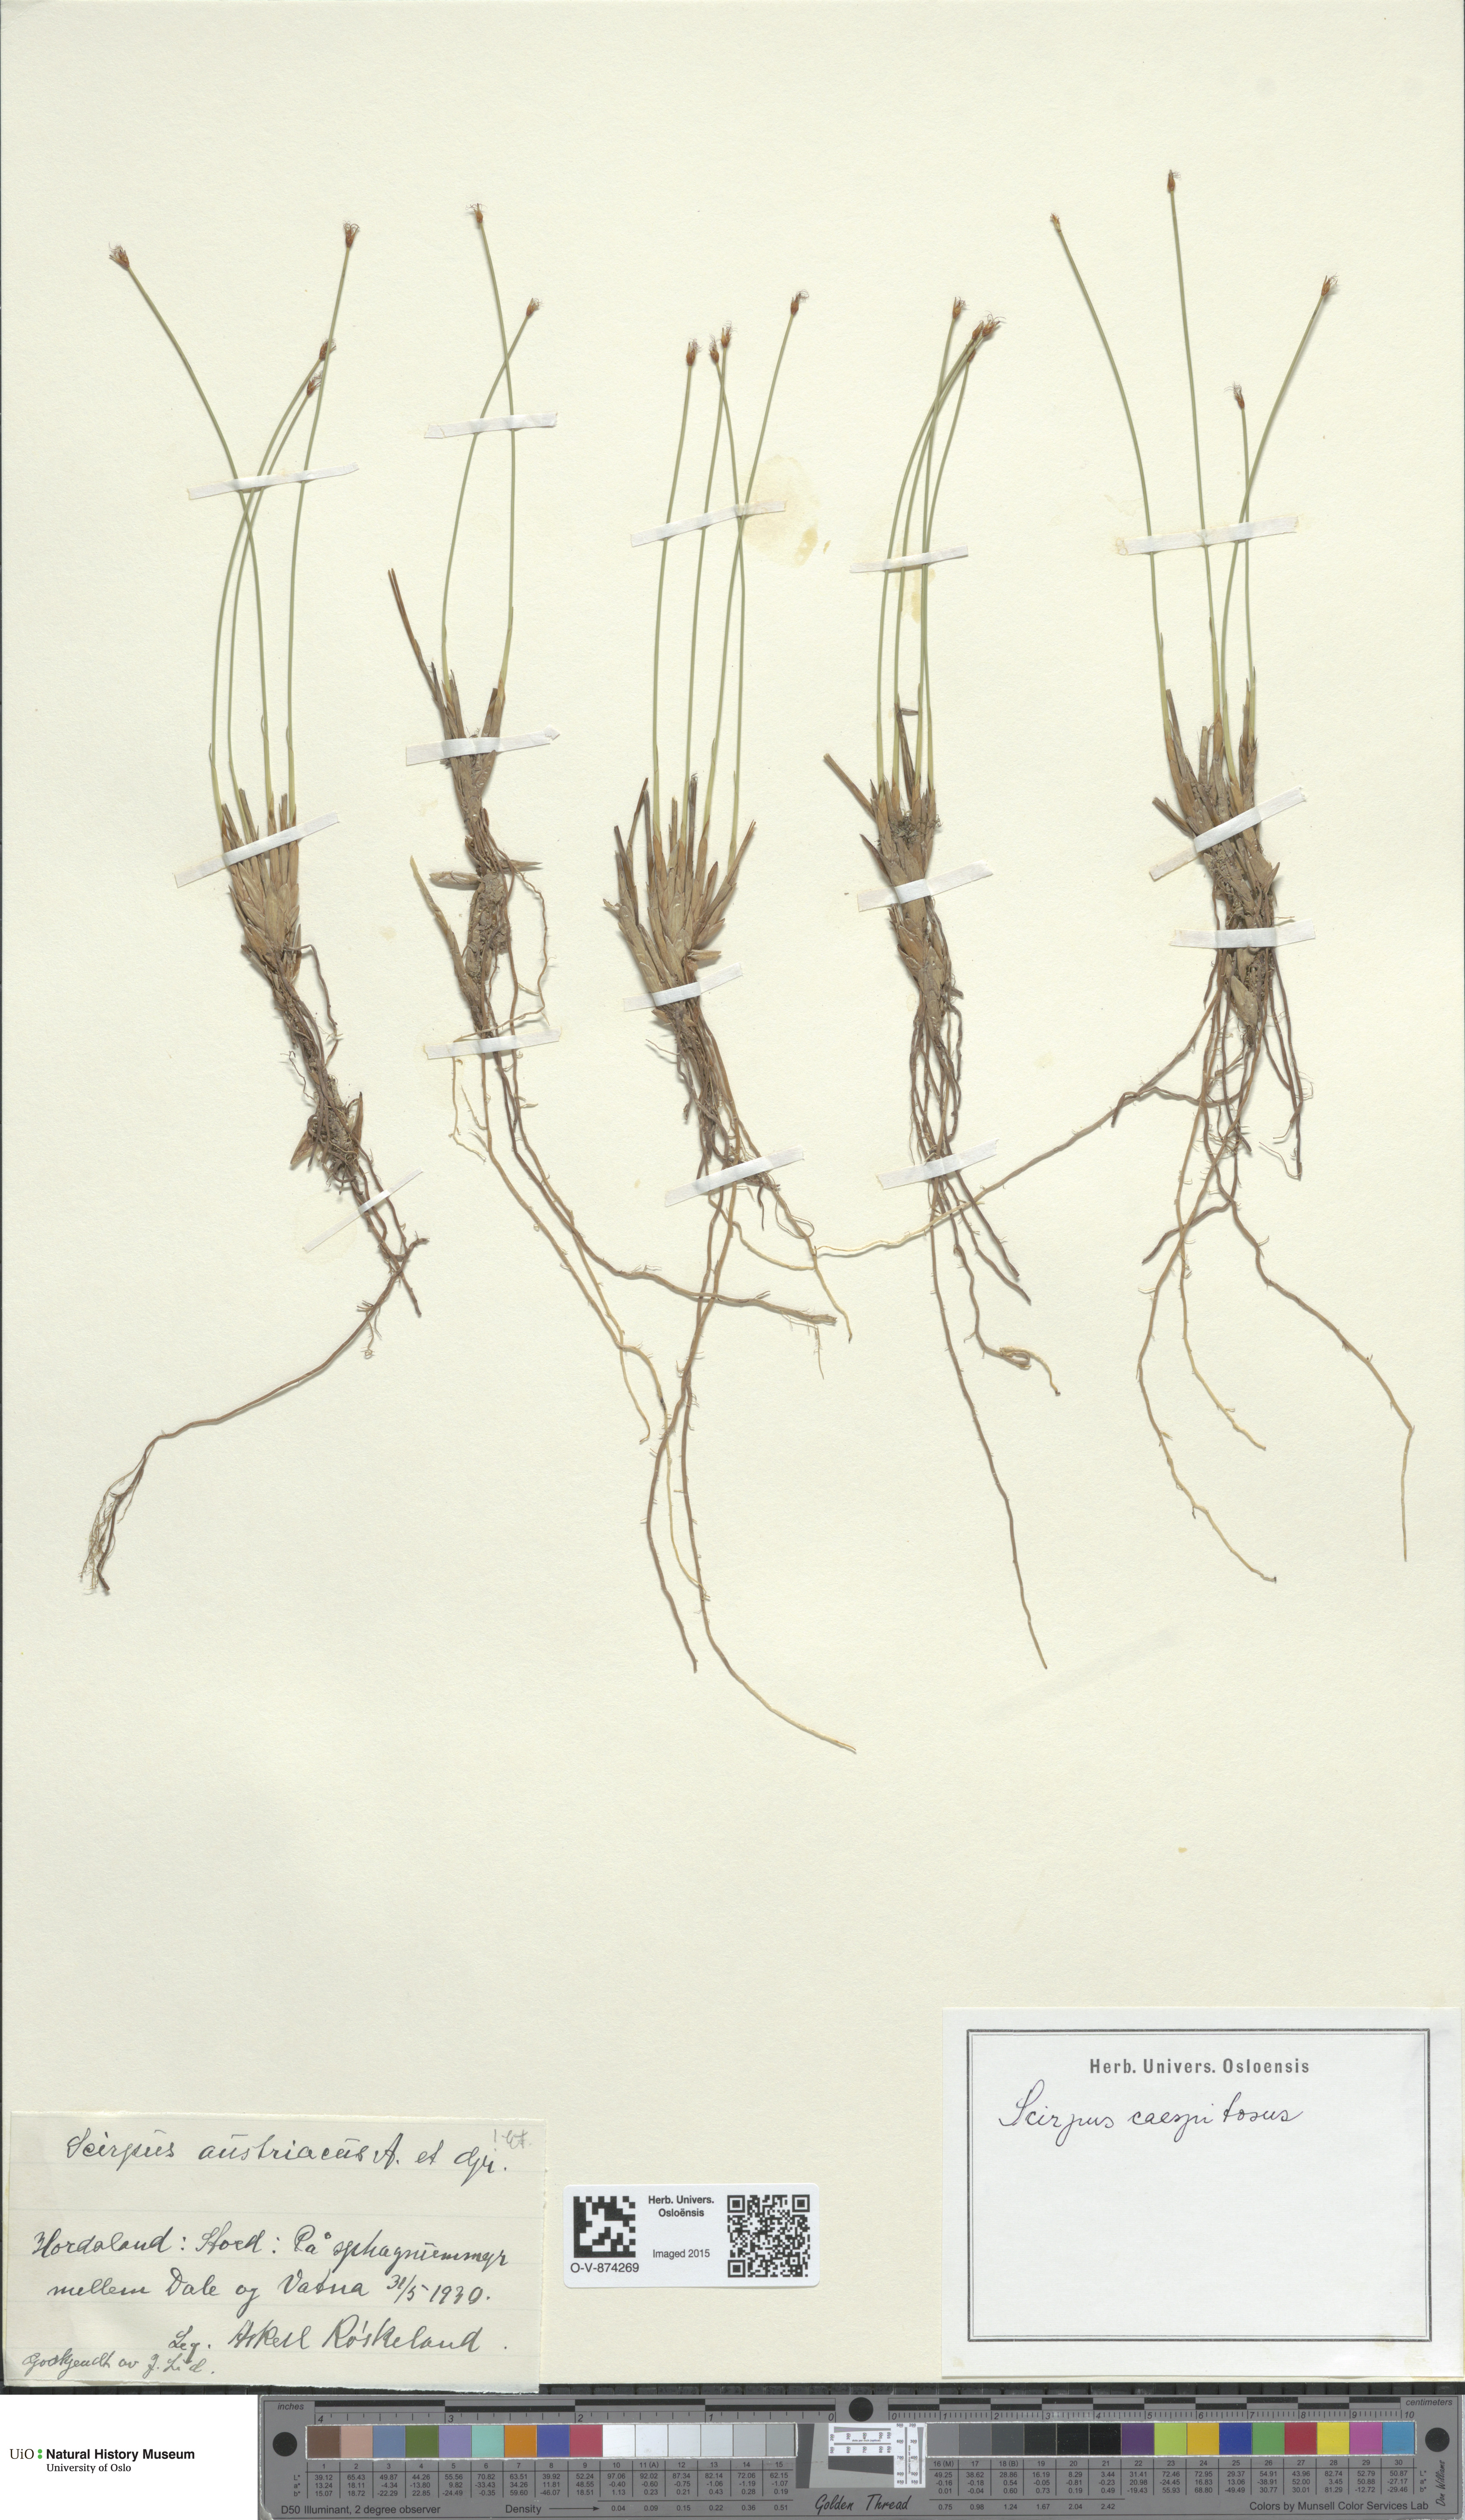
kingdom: Plantae
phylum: Tracheophyta
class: Liliopsida
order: Poales
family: Cyperaceae
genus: Trichophorum
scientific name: Trichophorum cespitosum
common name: Cespitose bulrush
